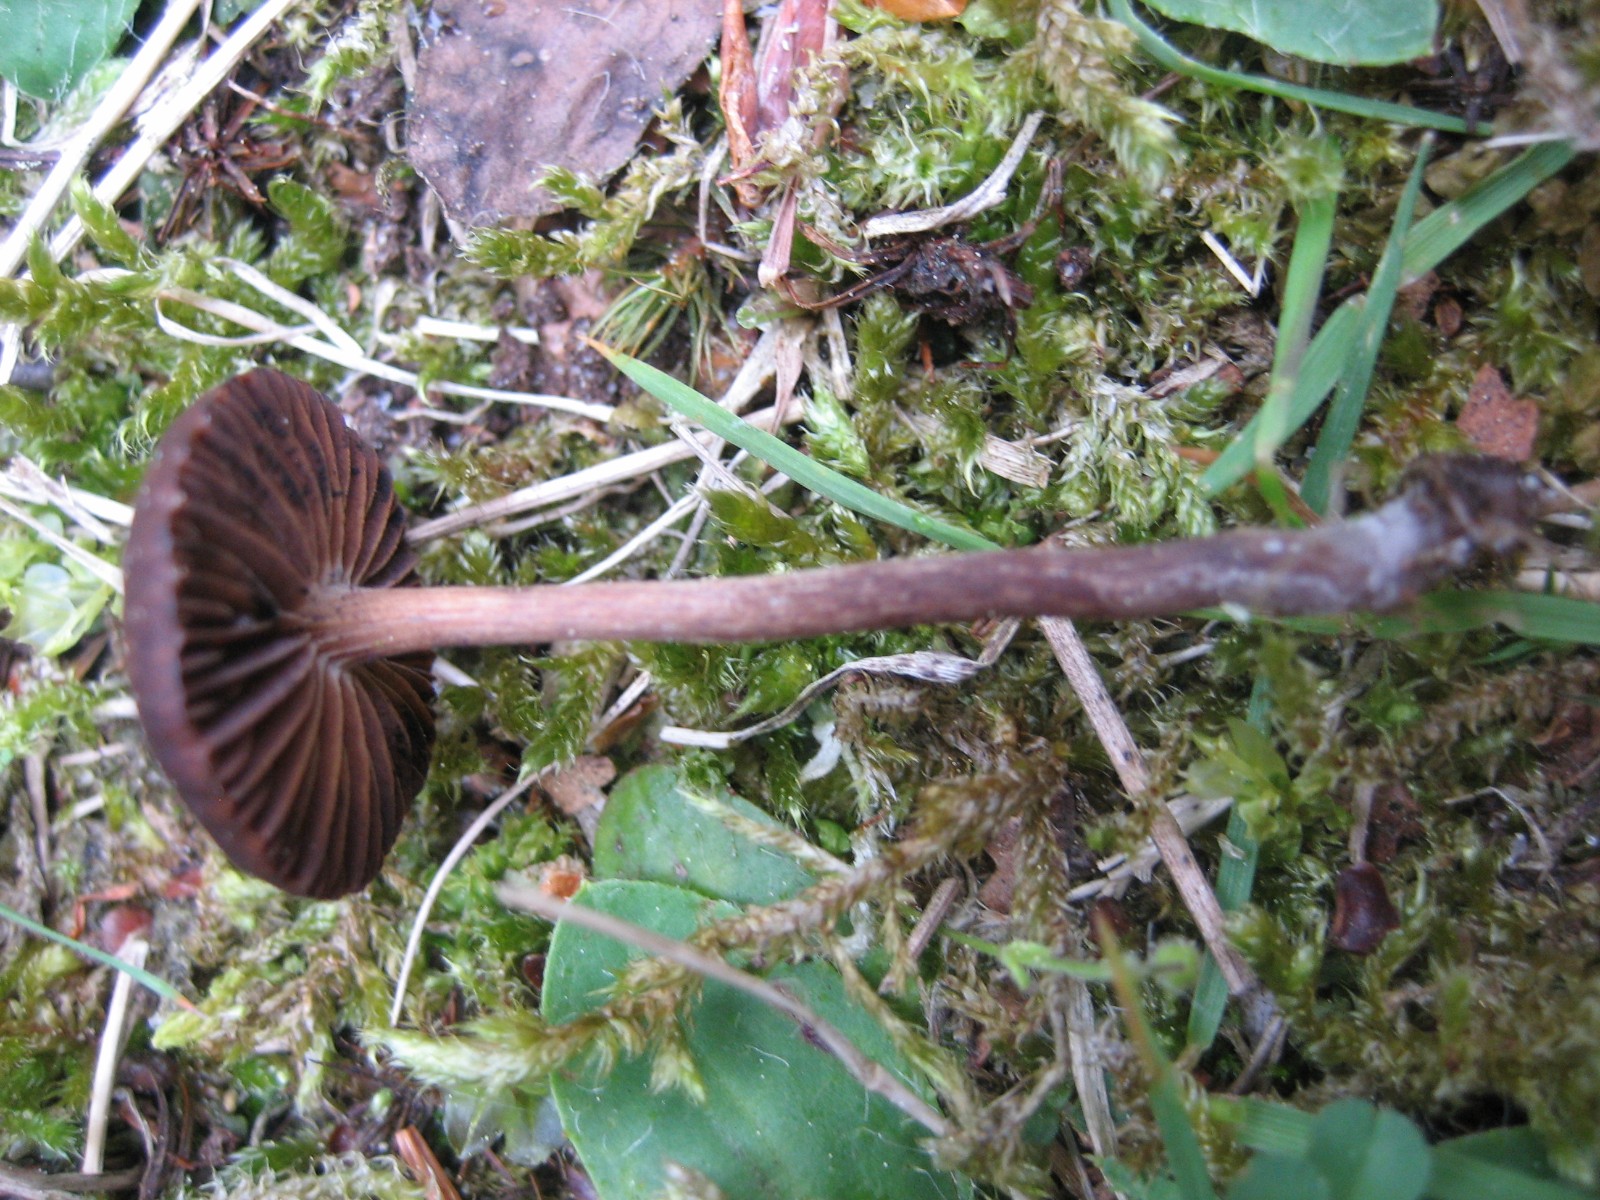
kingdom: Fungi
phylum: Basidiomycota
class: Agaricomycetes
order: Agaricales
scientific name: Agaricales
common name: champignonordenen
